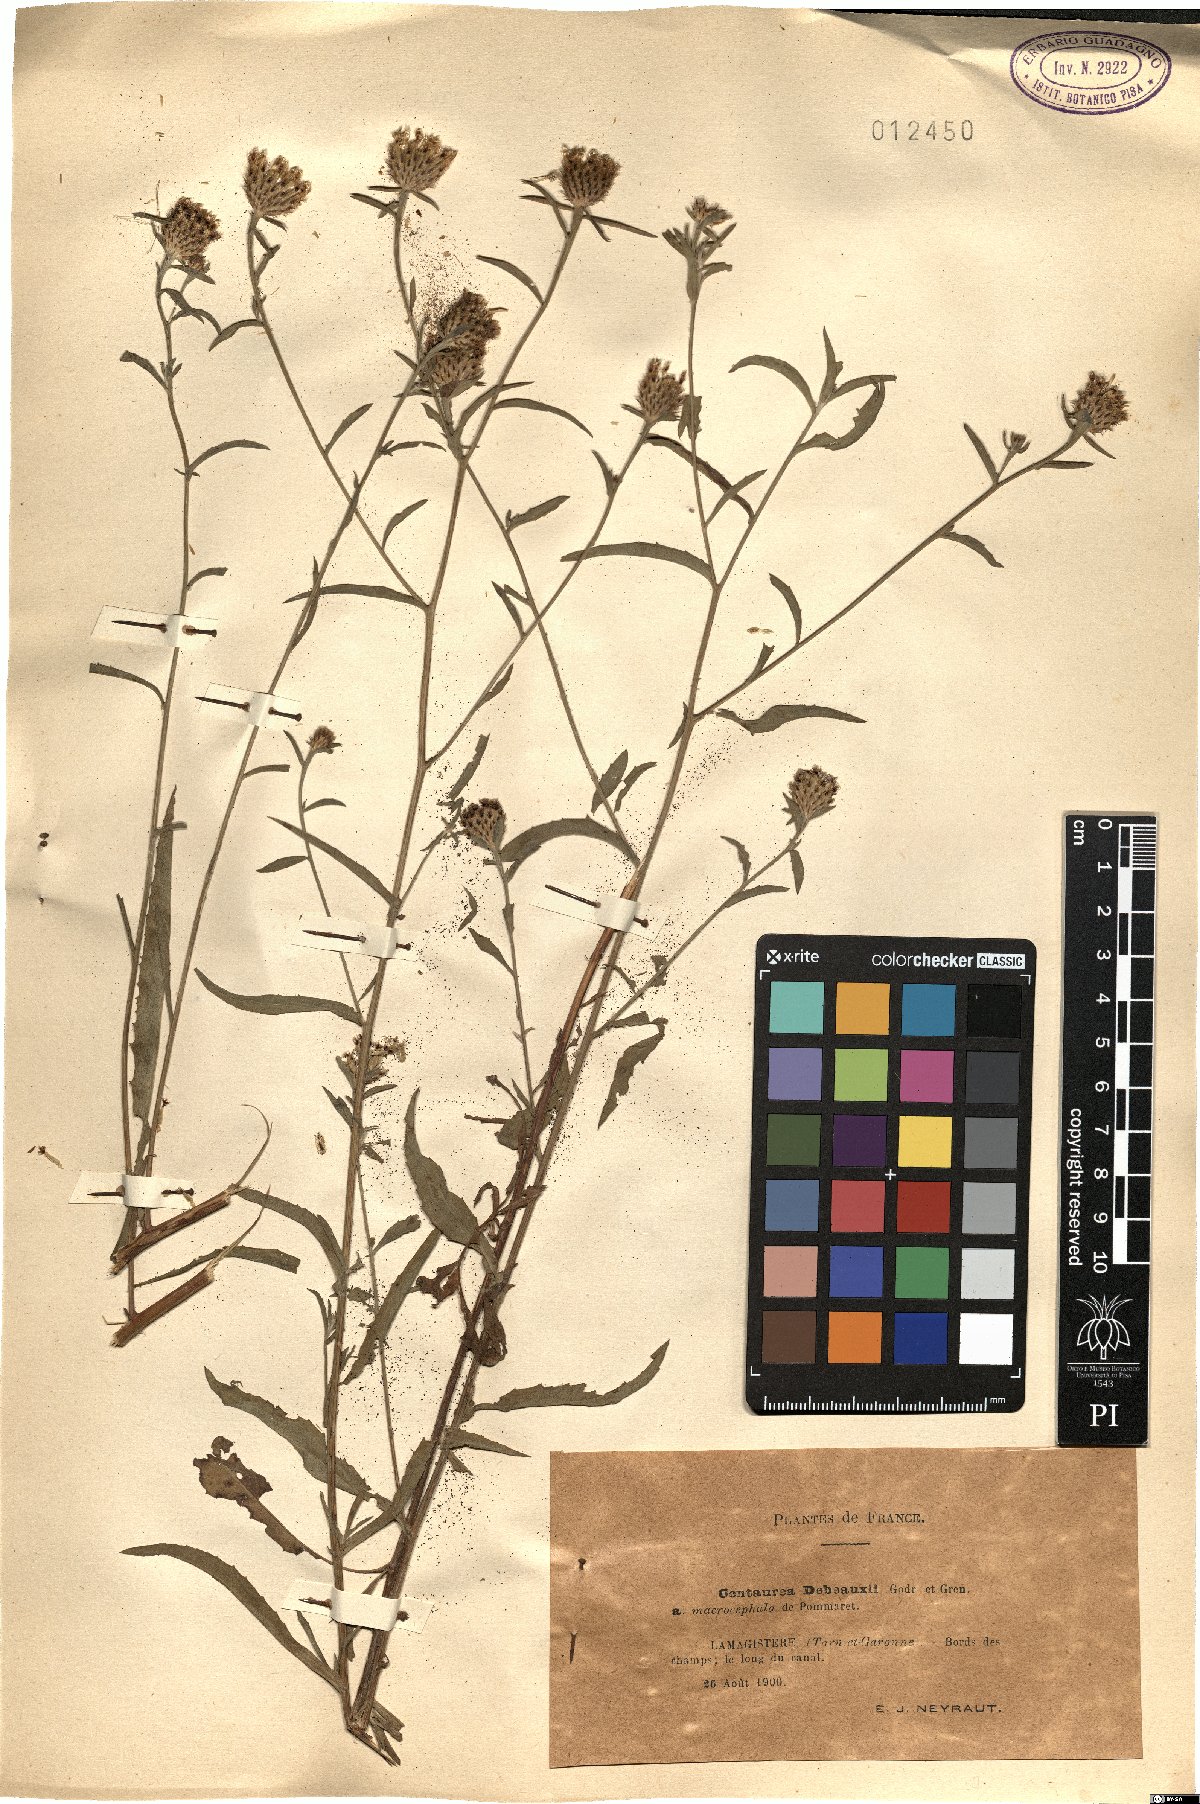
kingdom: Plantae
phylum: Tracheophyta
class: Magnoliopsida
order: Asterales
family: Asteraceae
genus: Centaurea
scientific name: Centaurea debeauxii
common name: Slender knapweed
